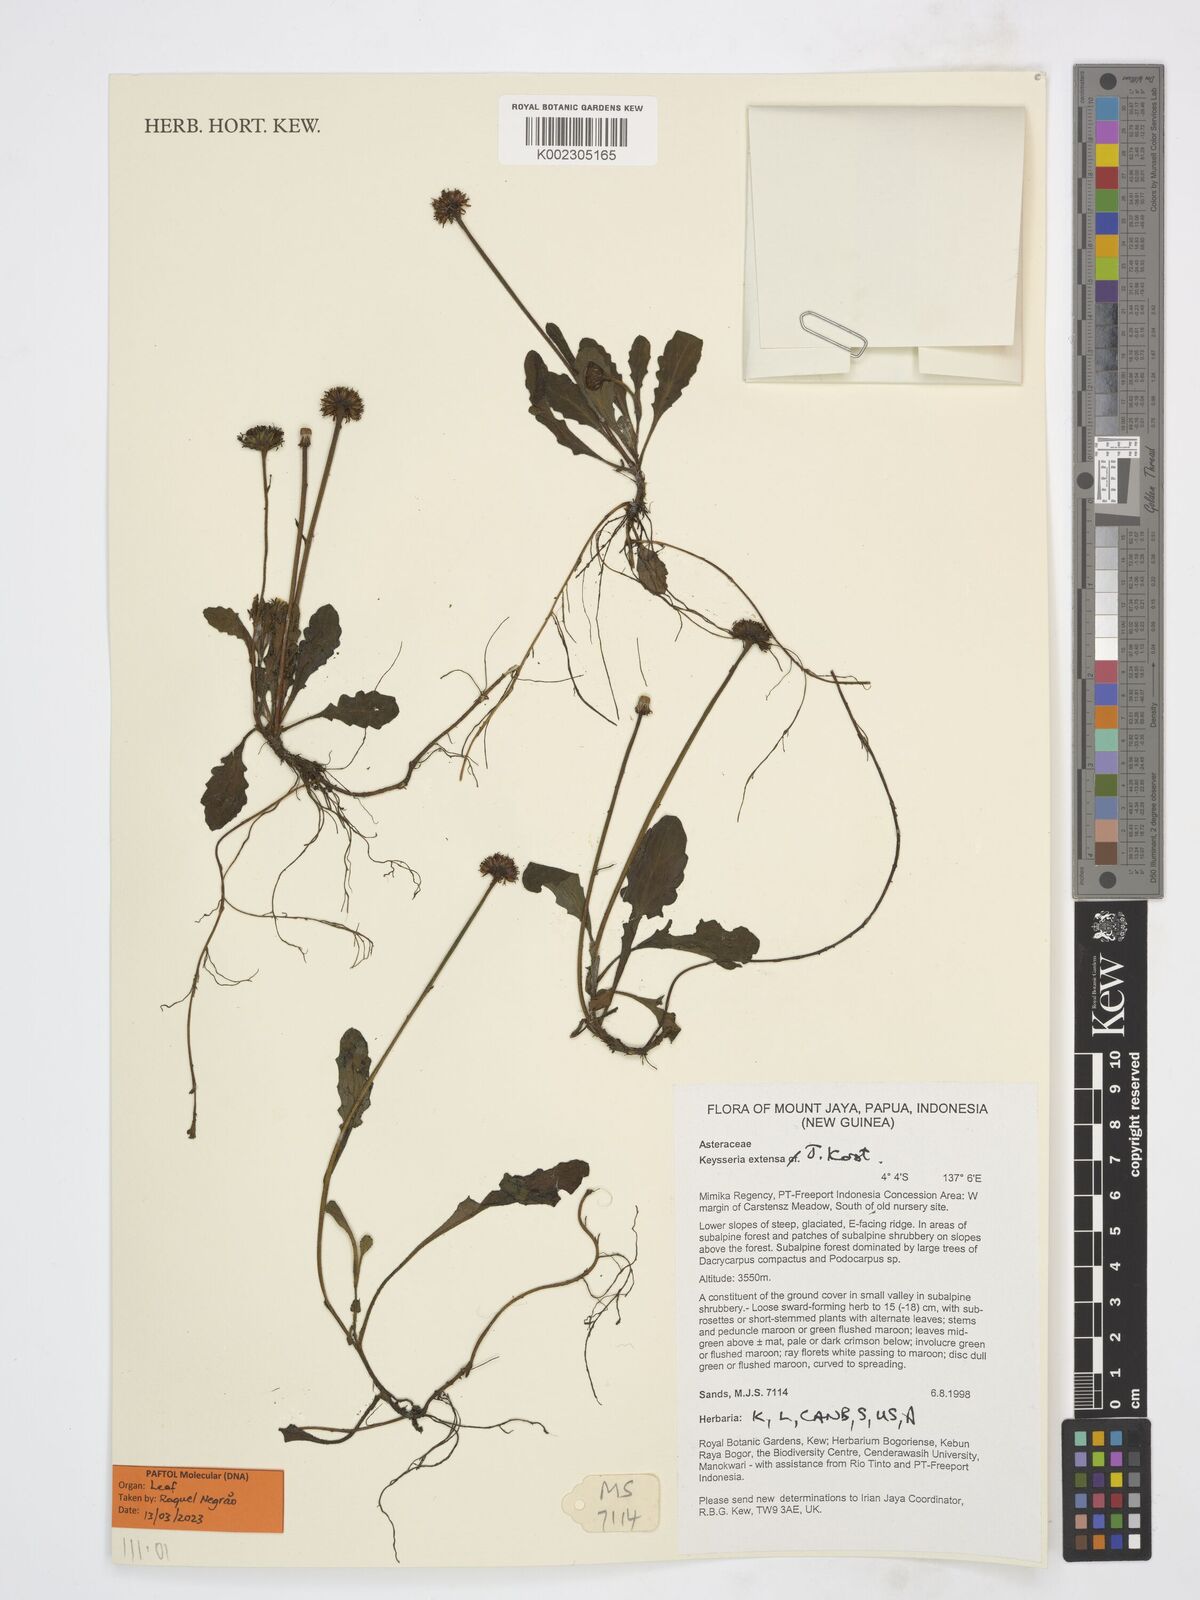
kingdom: Plantae
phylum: Tracheophyta
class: Magnoliopsida
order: Asterales
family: Asteraceae
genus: Keysseria
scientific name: Keysseria extensa
